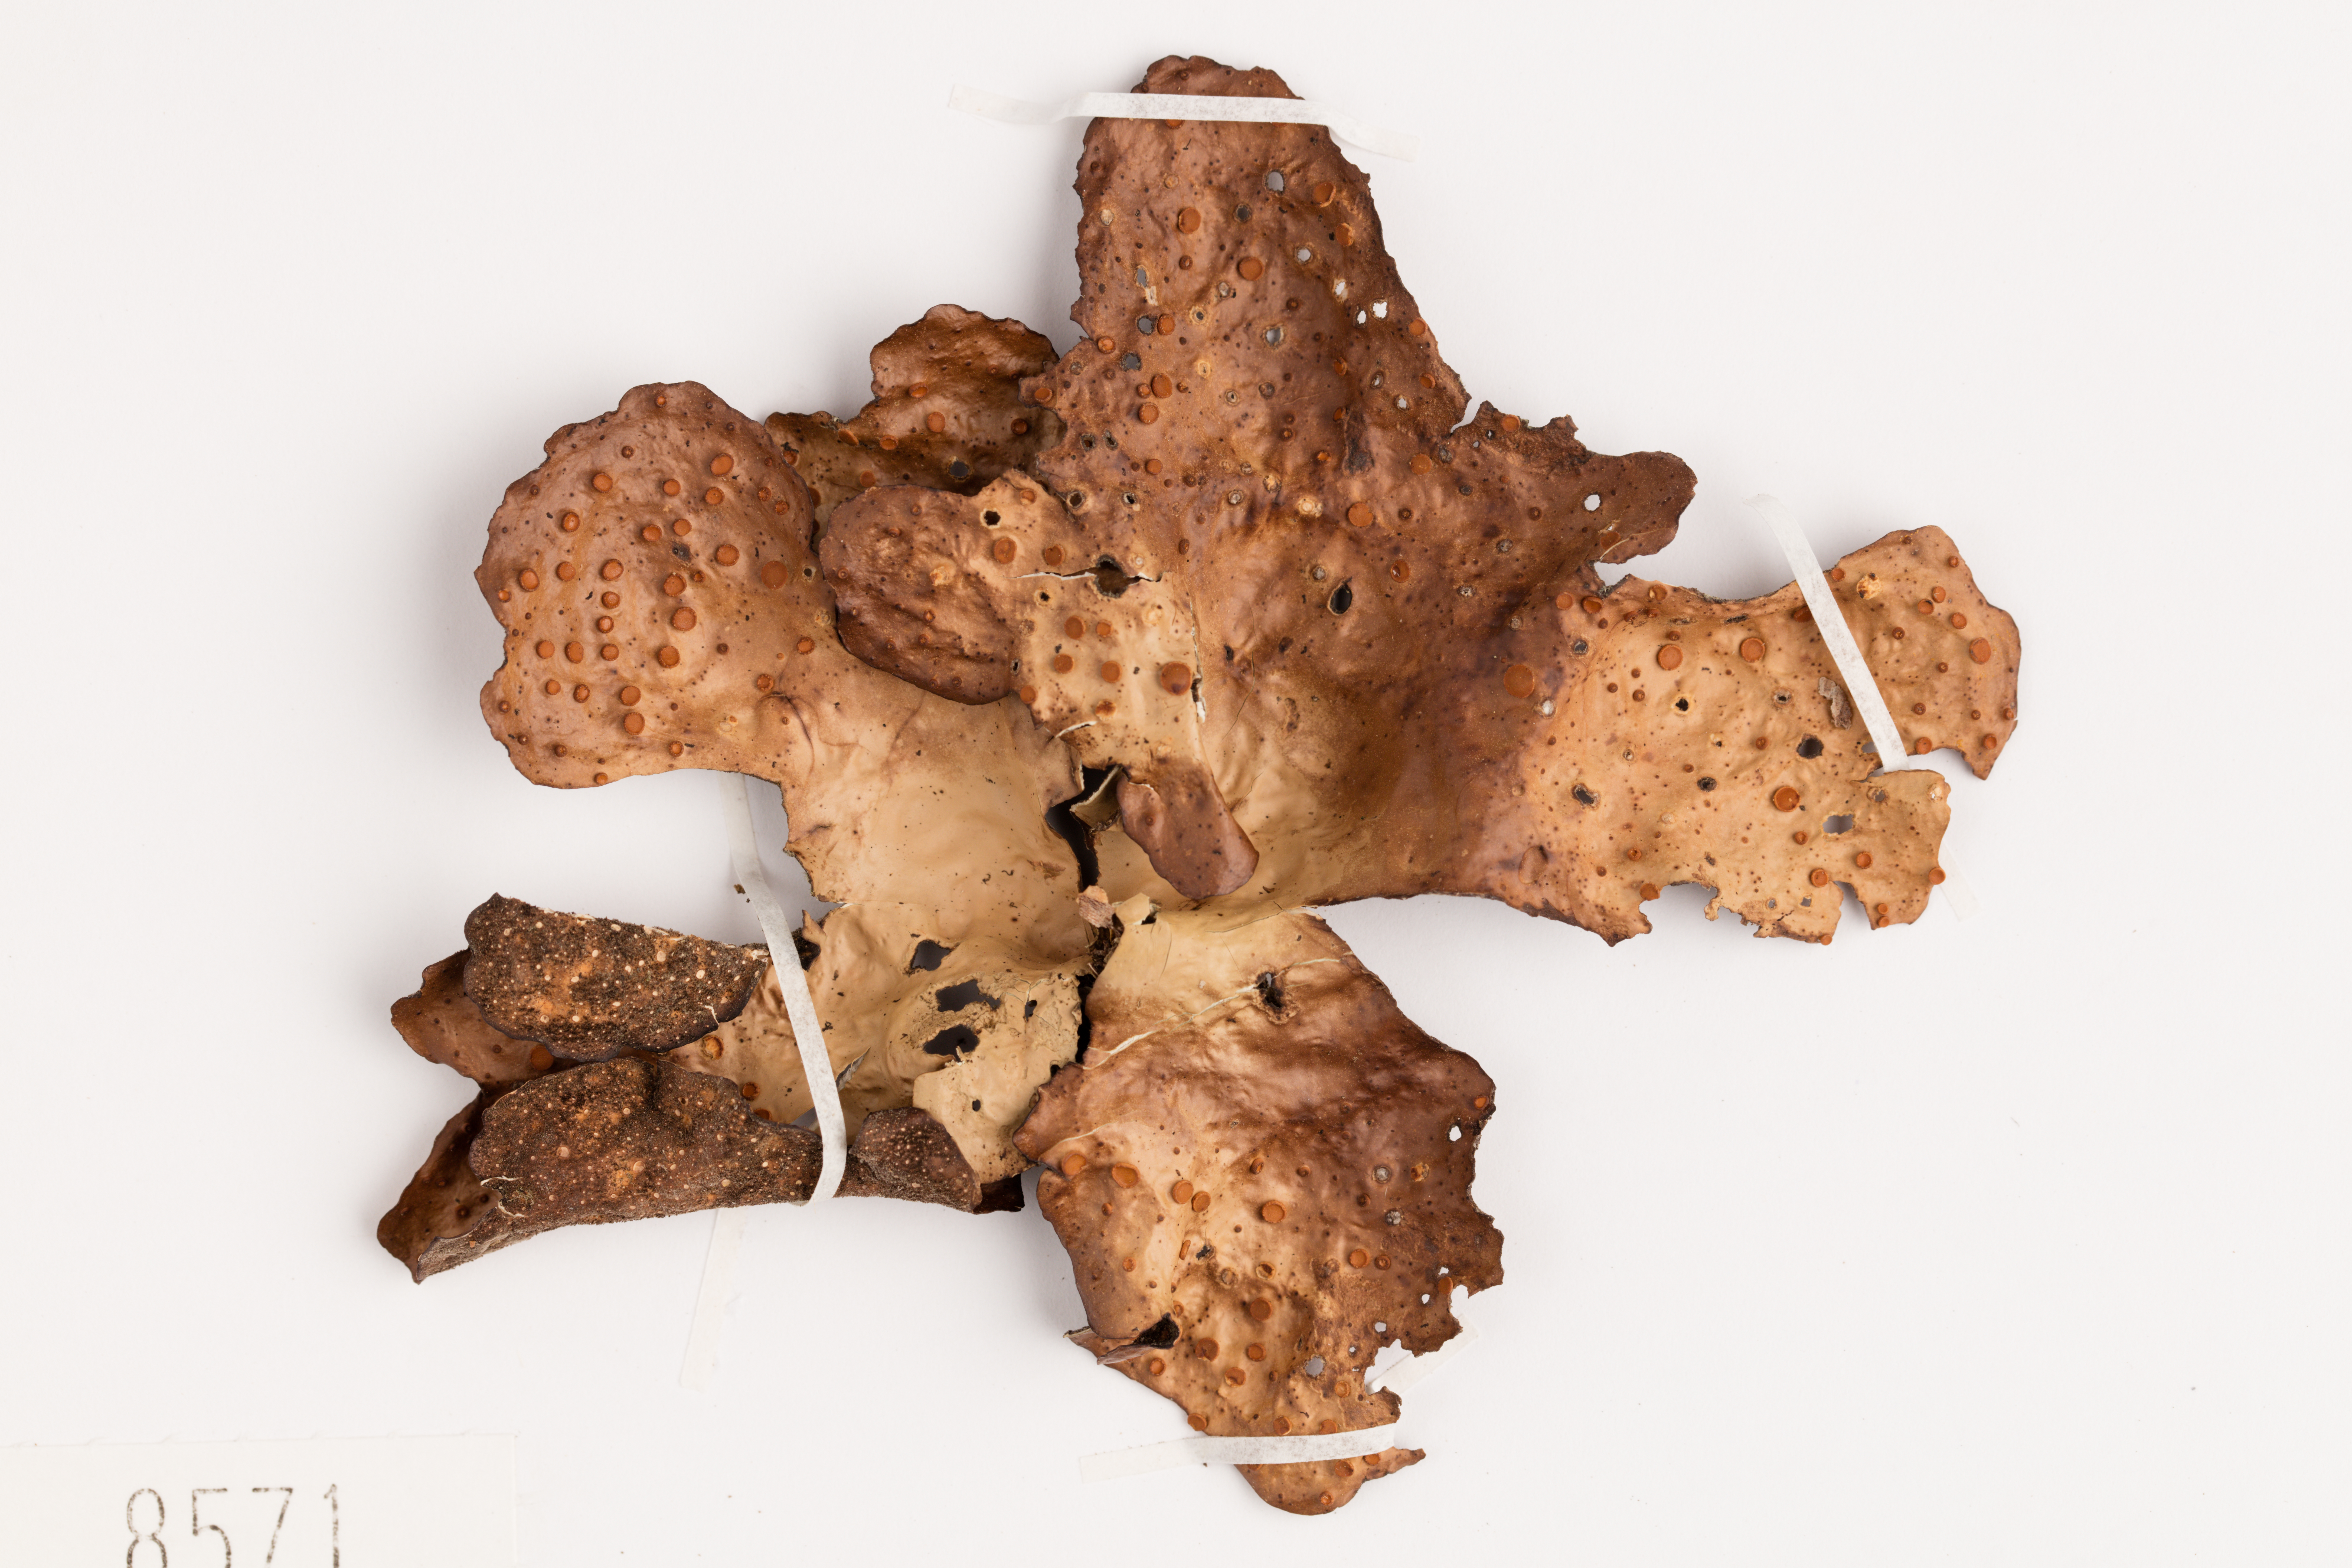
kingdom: Fungi
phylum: Ascomycota
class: Lecanoromycetes
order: Peltigerales
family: Lobariaceae
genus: Sticta
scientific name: Sticta latifrons
